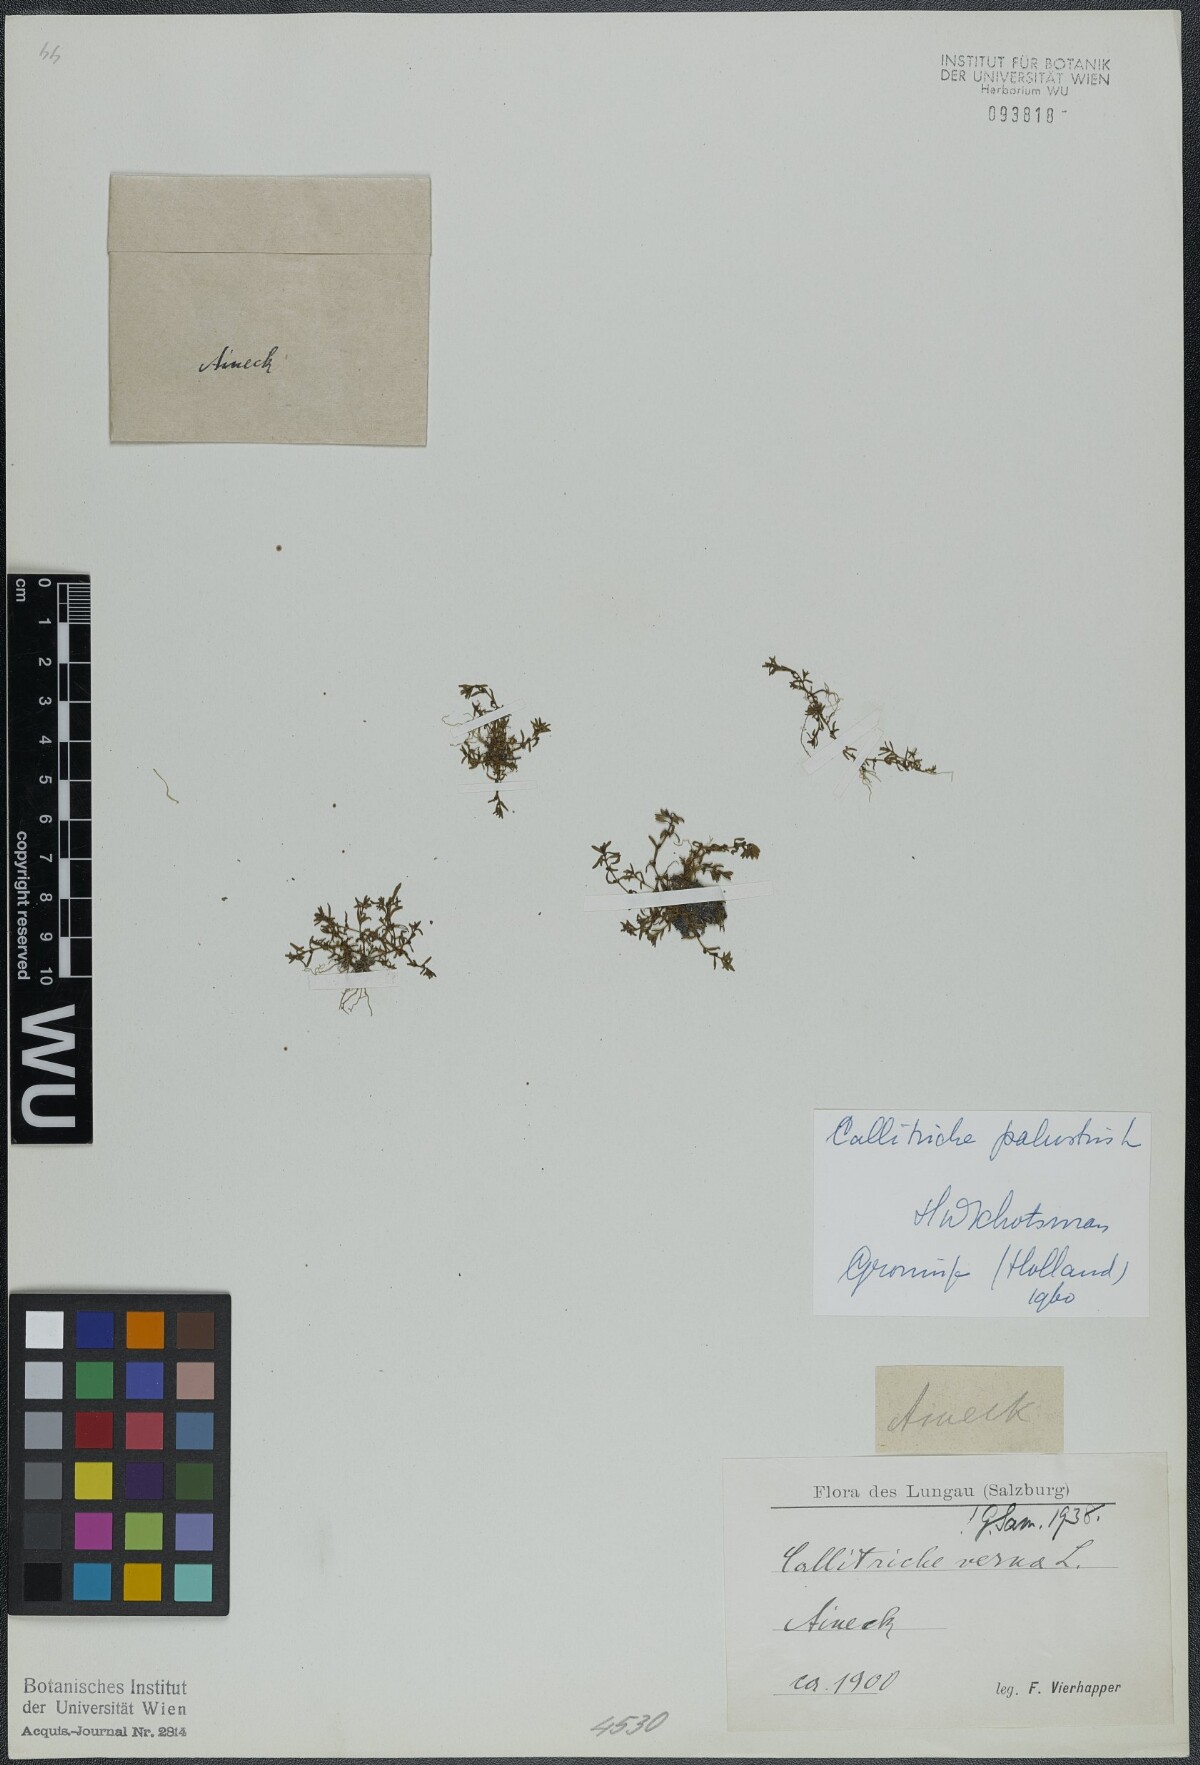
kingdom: Plantae
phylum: Tracheophyta
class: Magnoliopsida
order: Lamiales
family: Plantaginaceae
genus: Callitriche
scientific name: Callitriche palustris
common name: Spring water-starwort
